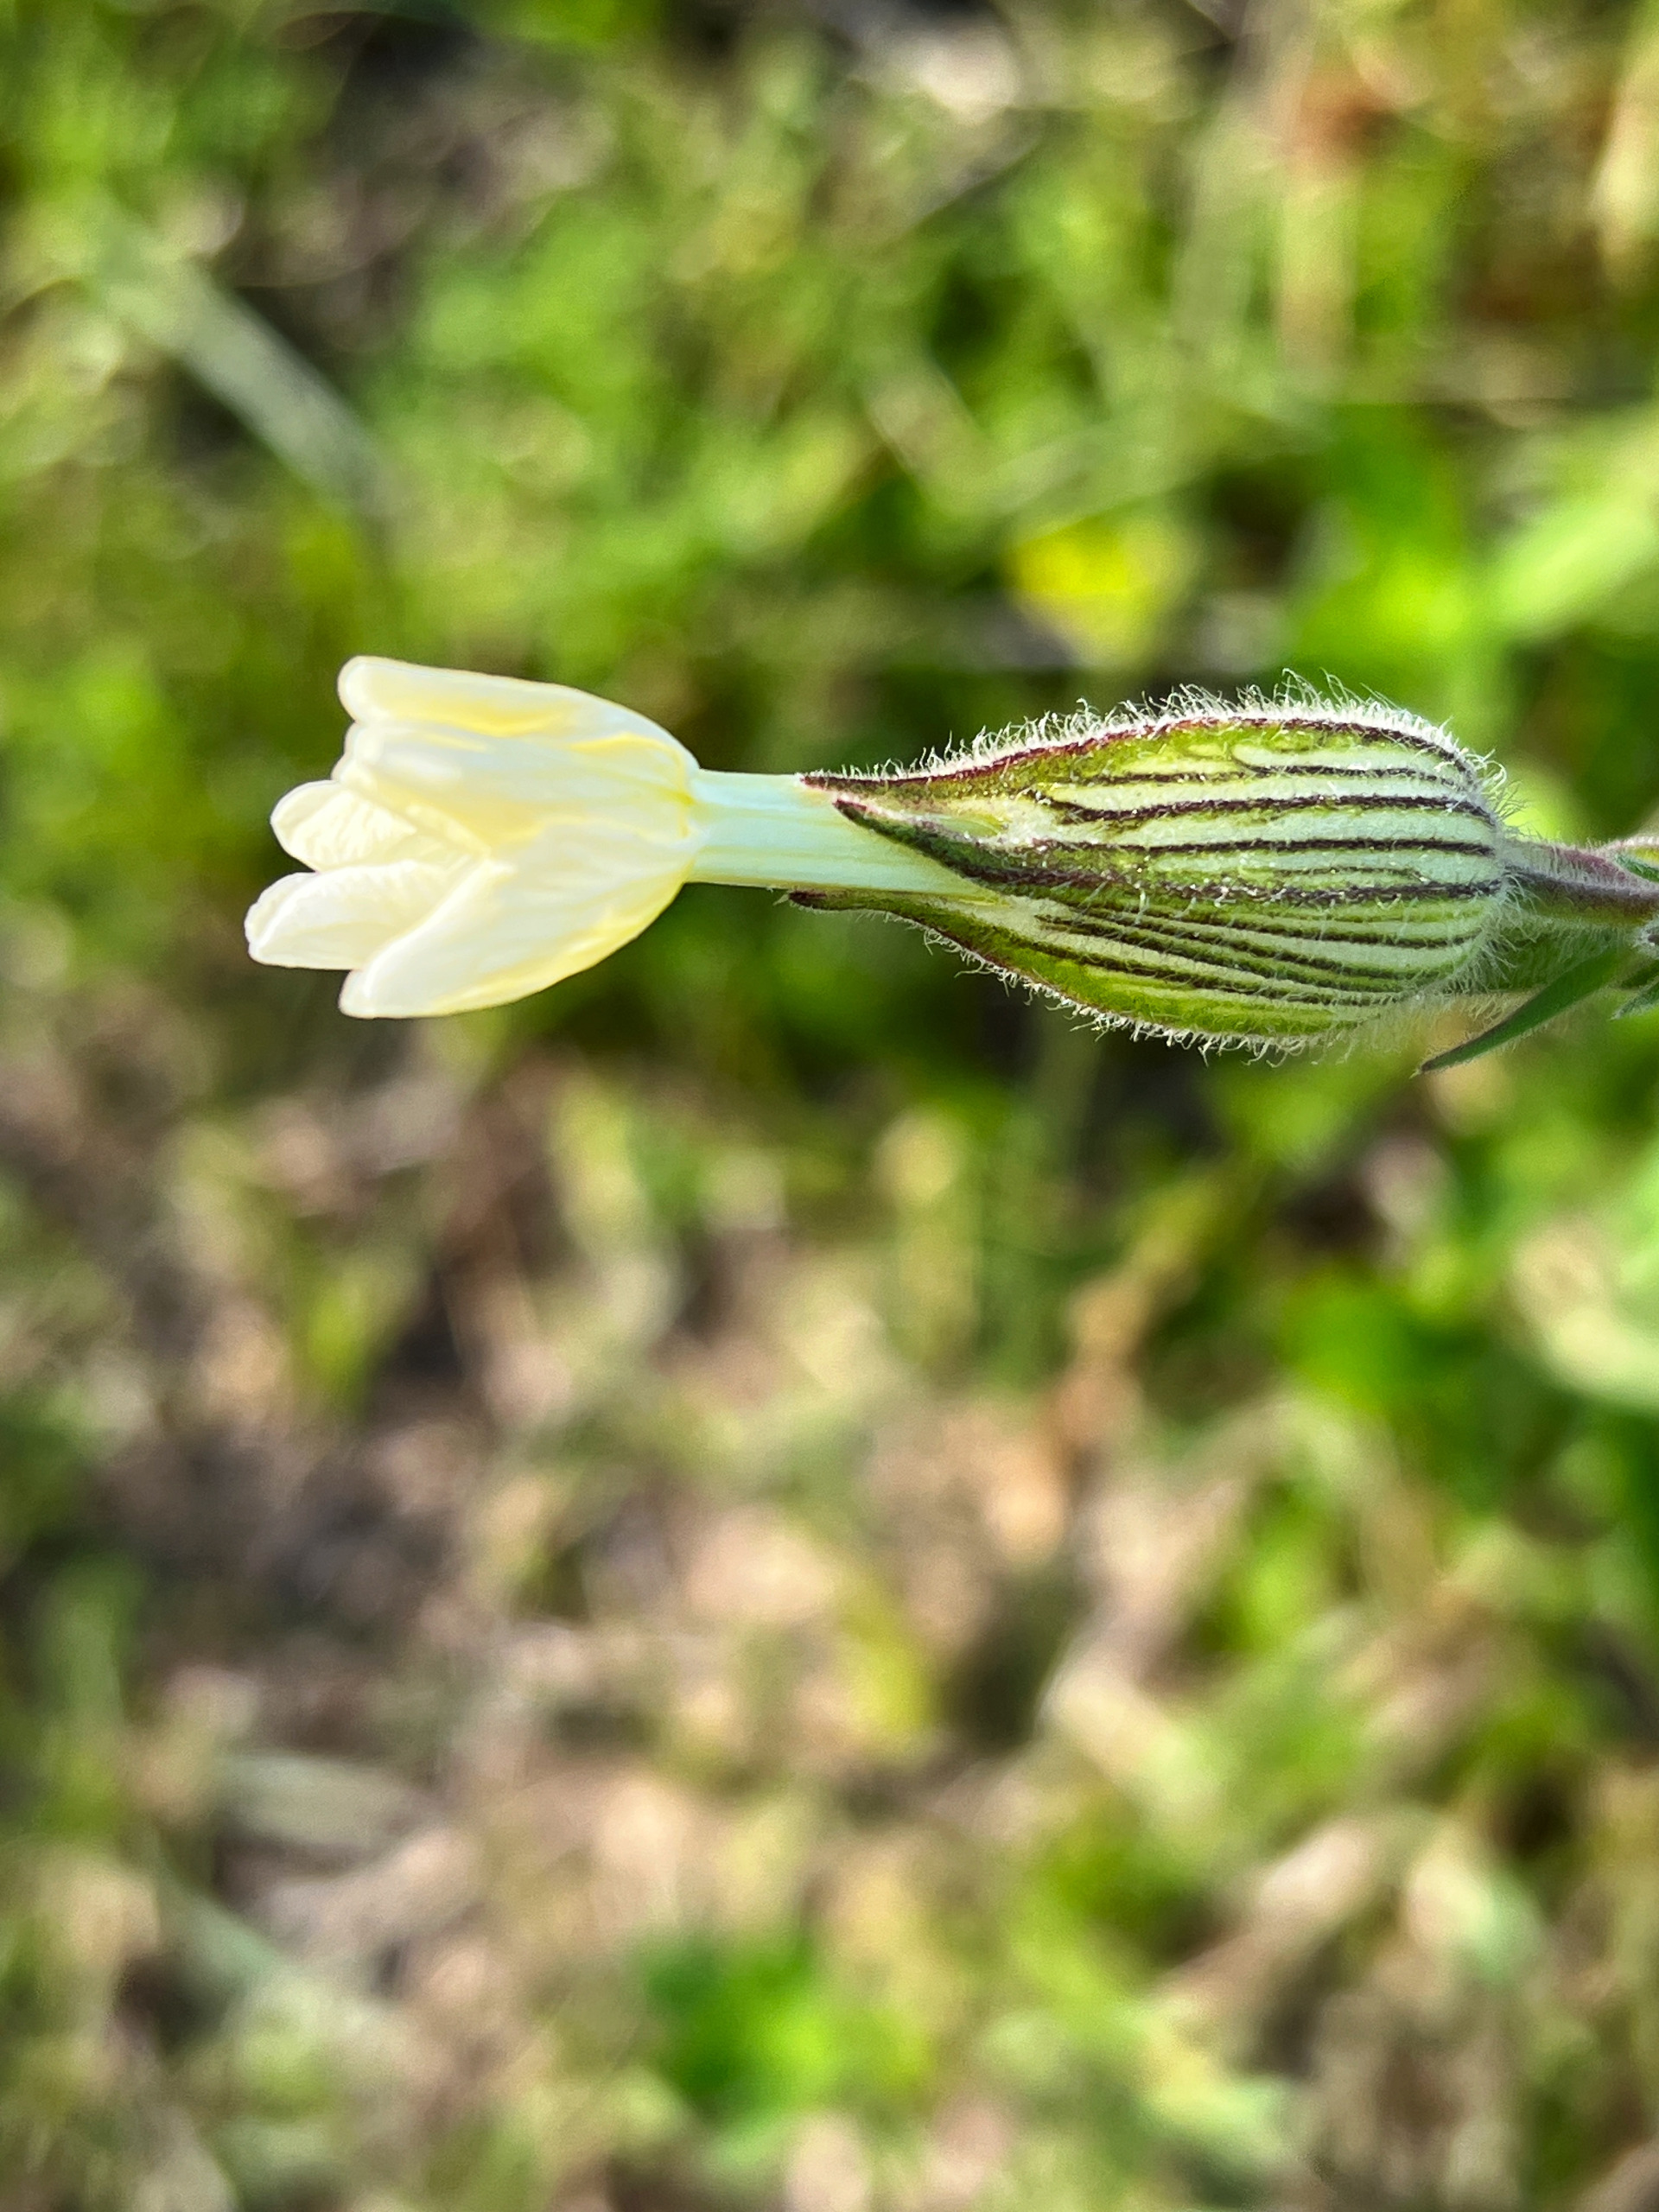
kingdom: Plantae
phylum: Tracheophyta
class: Magnoliopsida
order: Caryophyllales
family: Caryophyllaceae
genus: Silene
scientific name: Silene latifolia
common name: Aftenpragtstjerne
